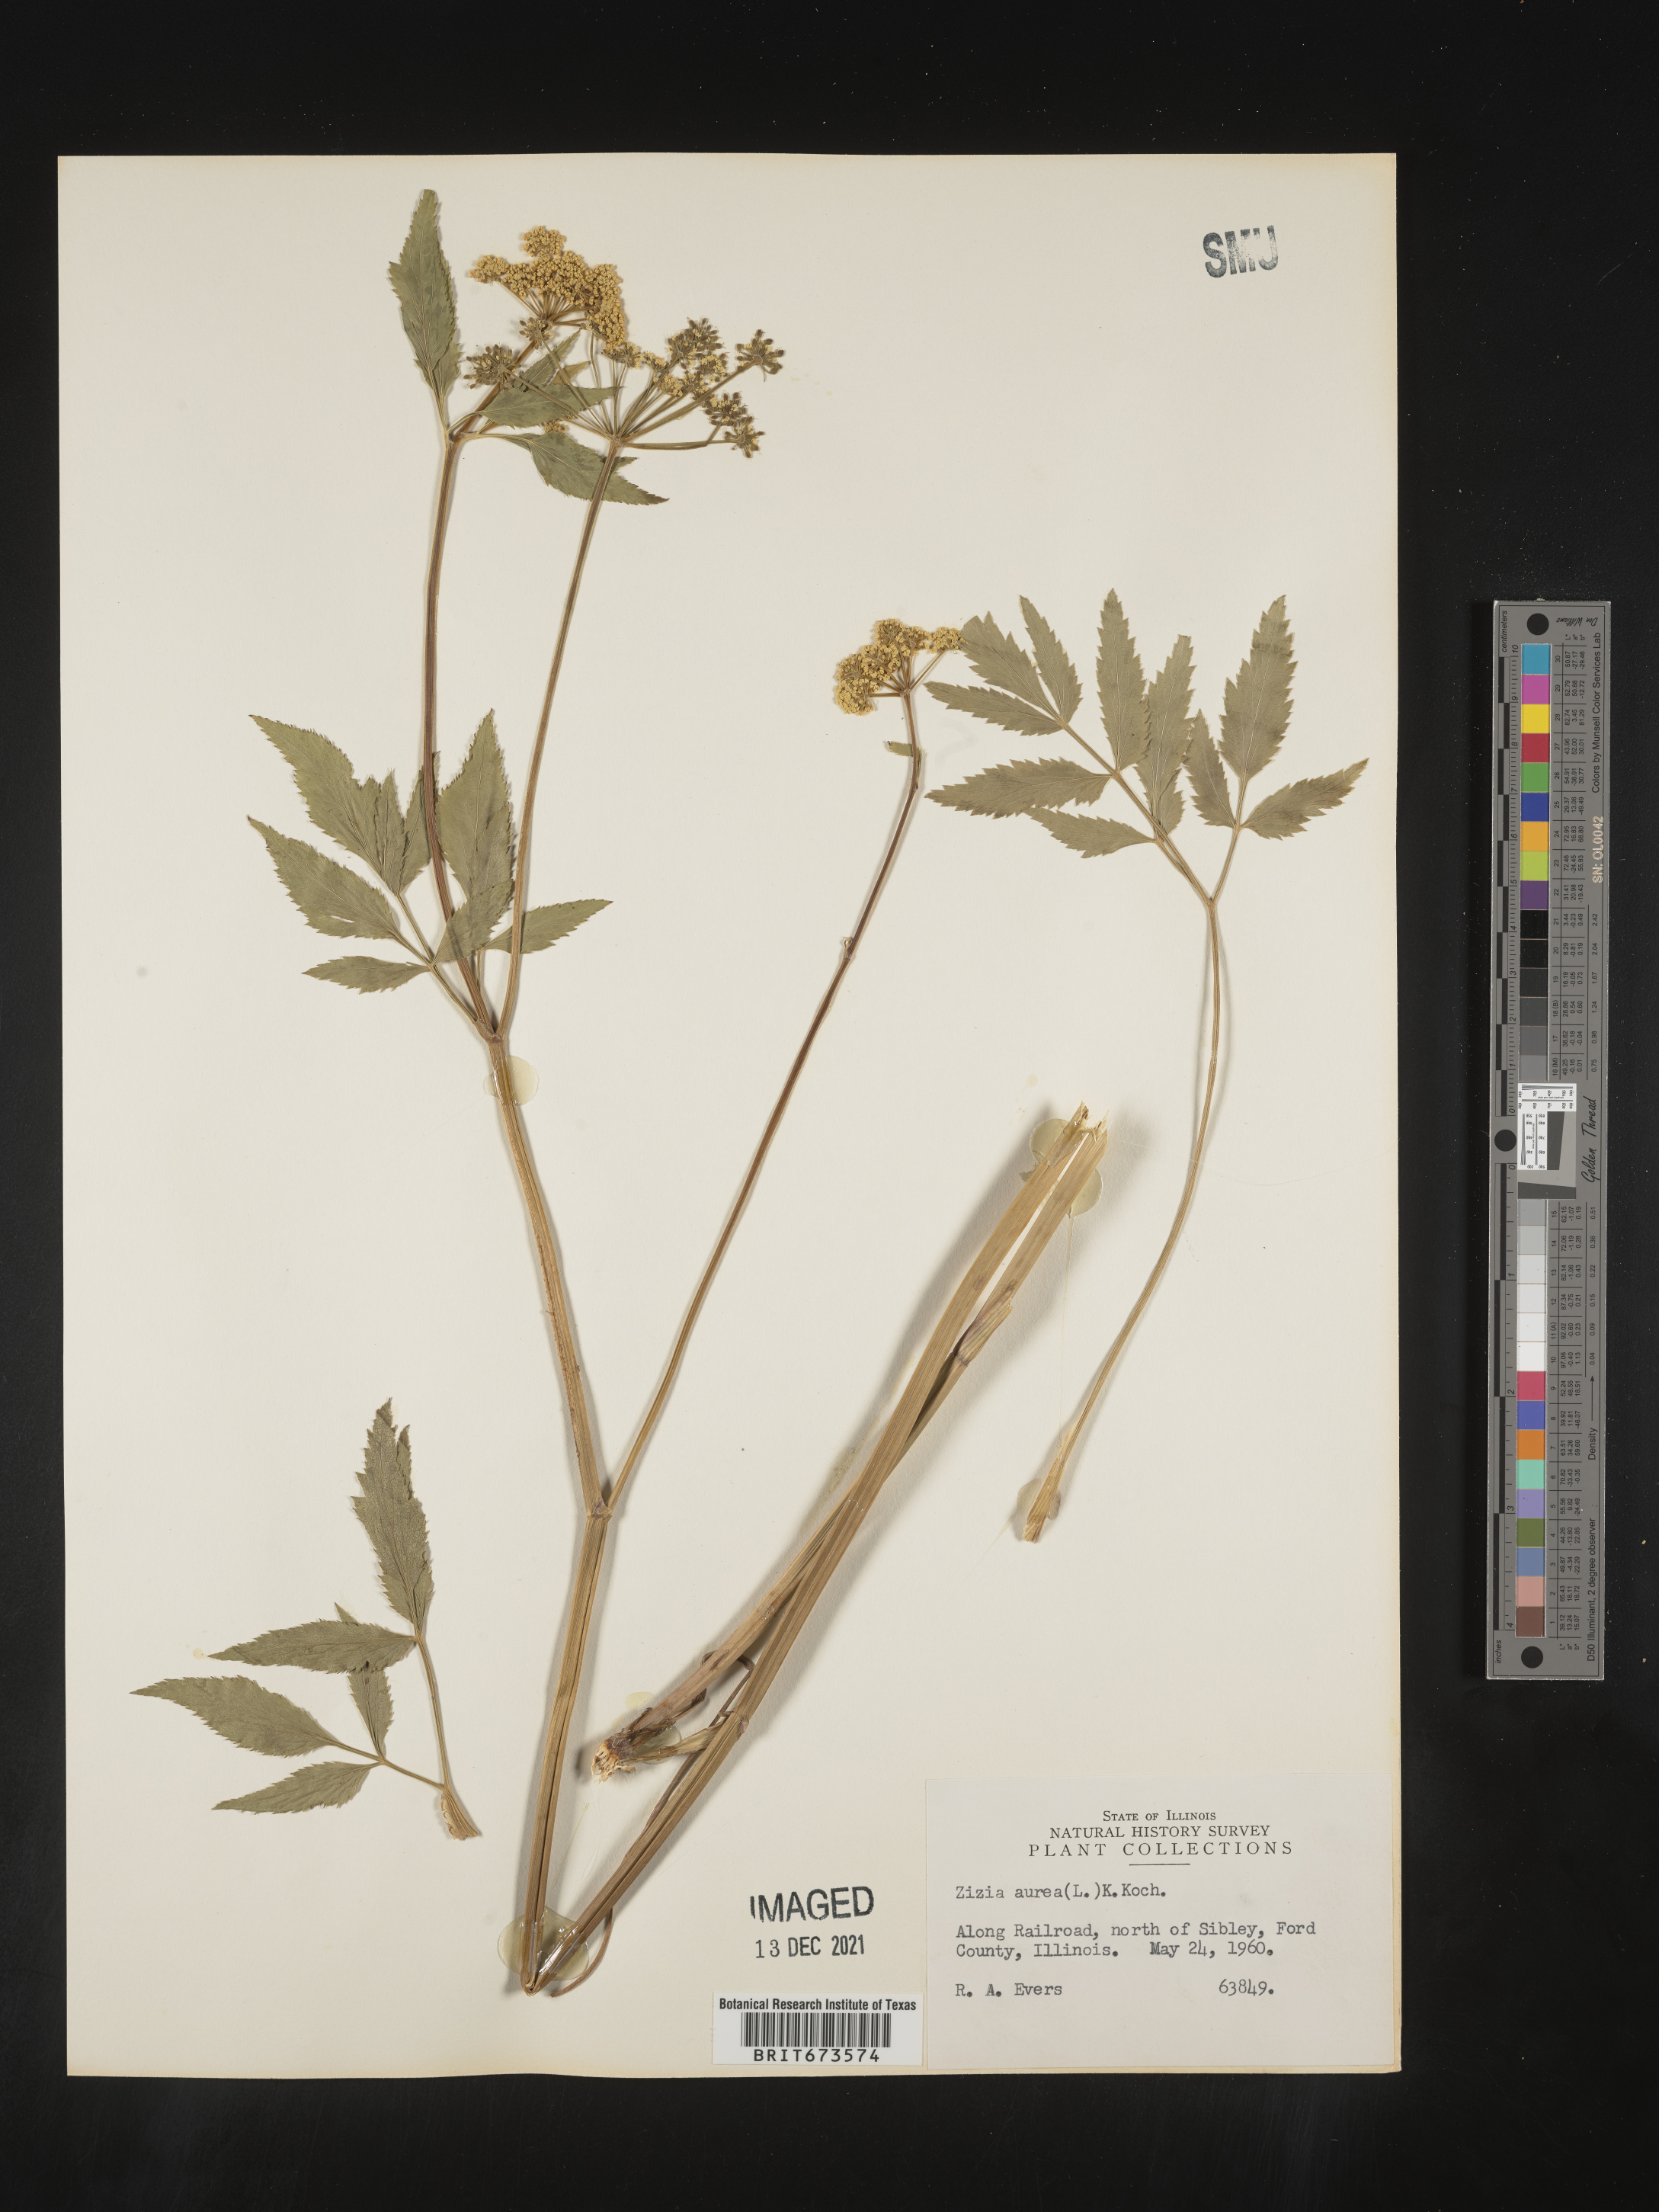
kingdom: Plantae
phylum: Tracheophyta
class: Magnoliopsida
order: Apiales
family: Apiaceae
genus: Zizia
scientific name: Zizia aurea
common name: Golden alexanders
